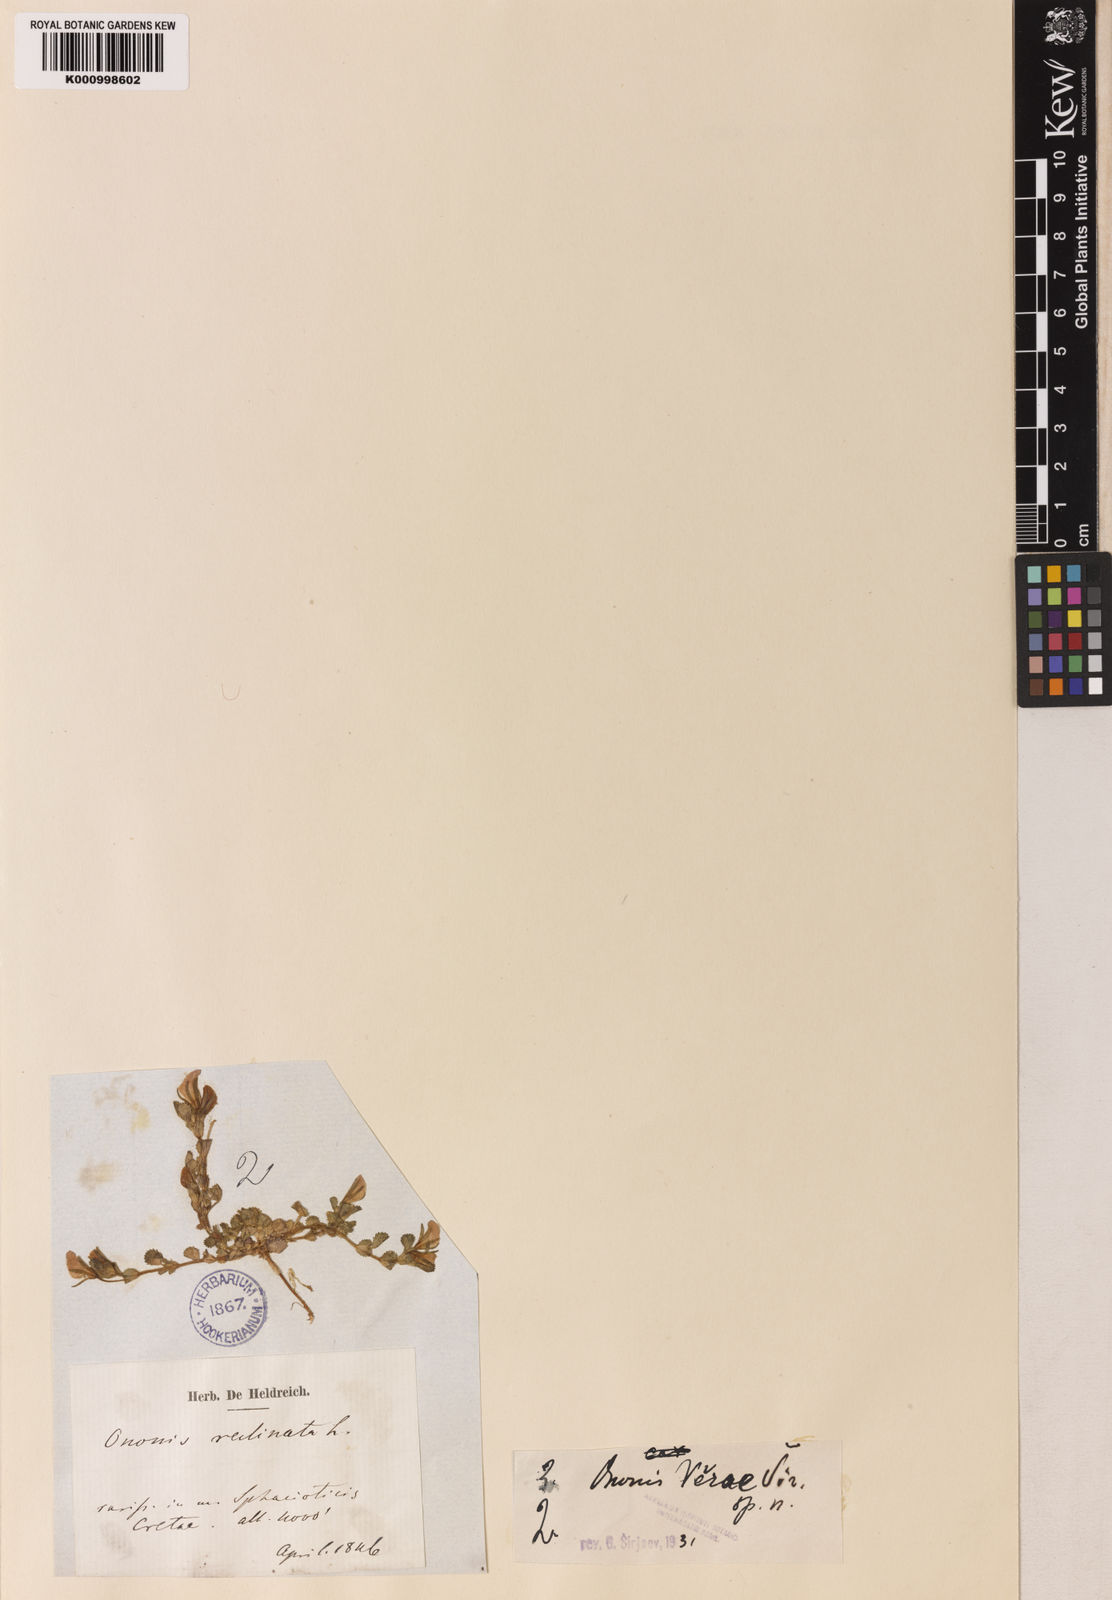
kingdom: Plantae
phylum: Tracheophyta
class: Magnoliopsida
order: Fabales
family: Fabaceae
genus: Ononis
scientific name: Ononis
